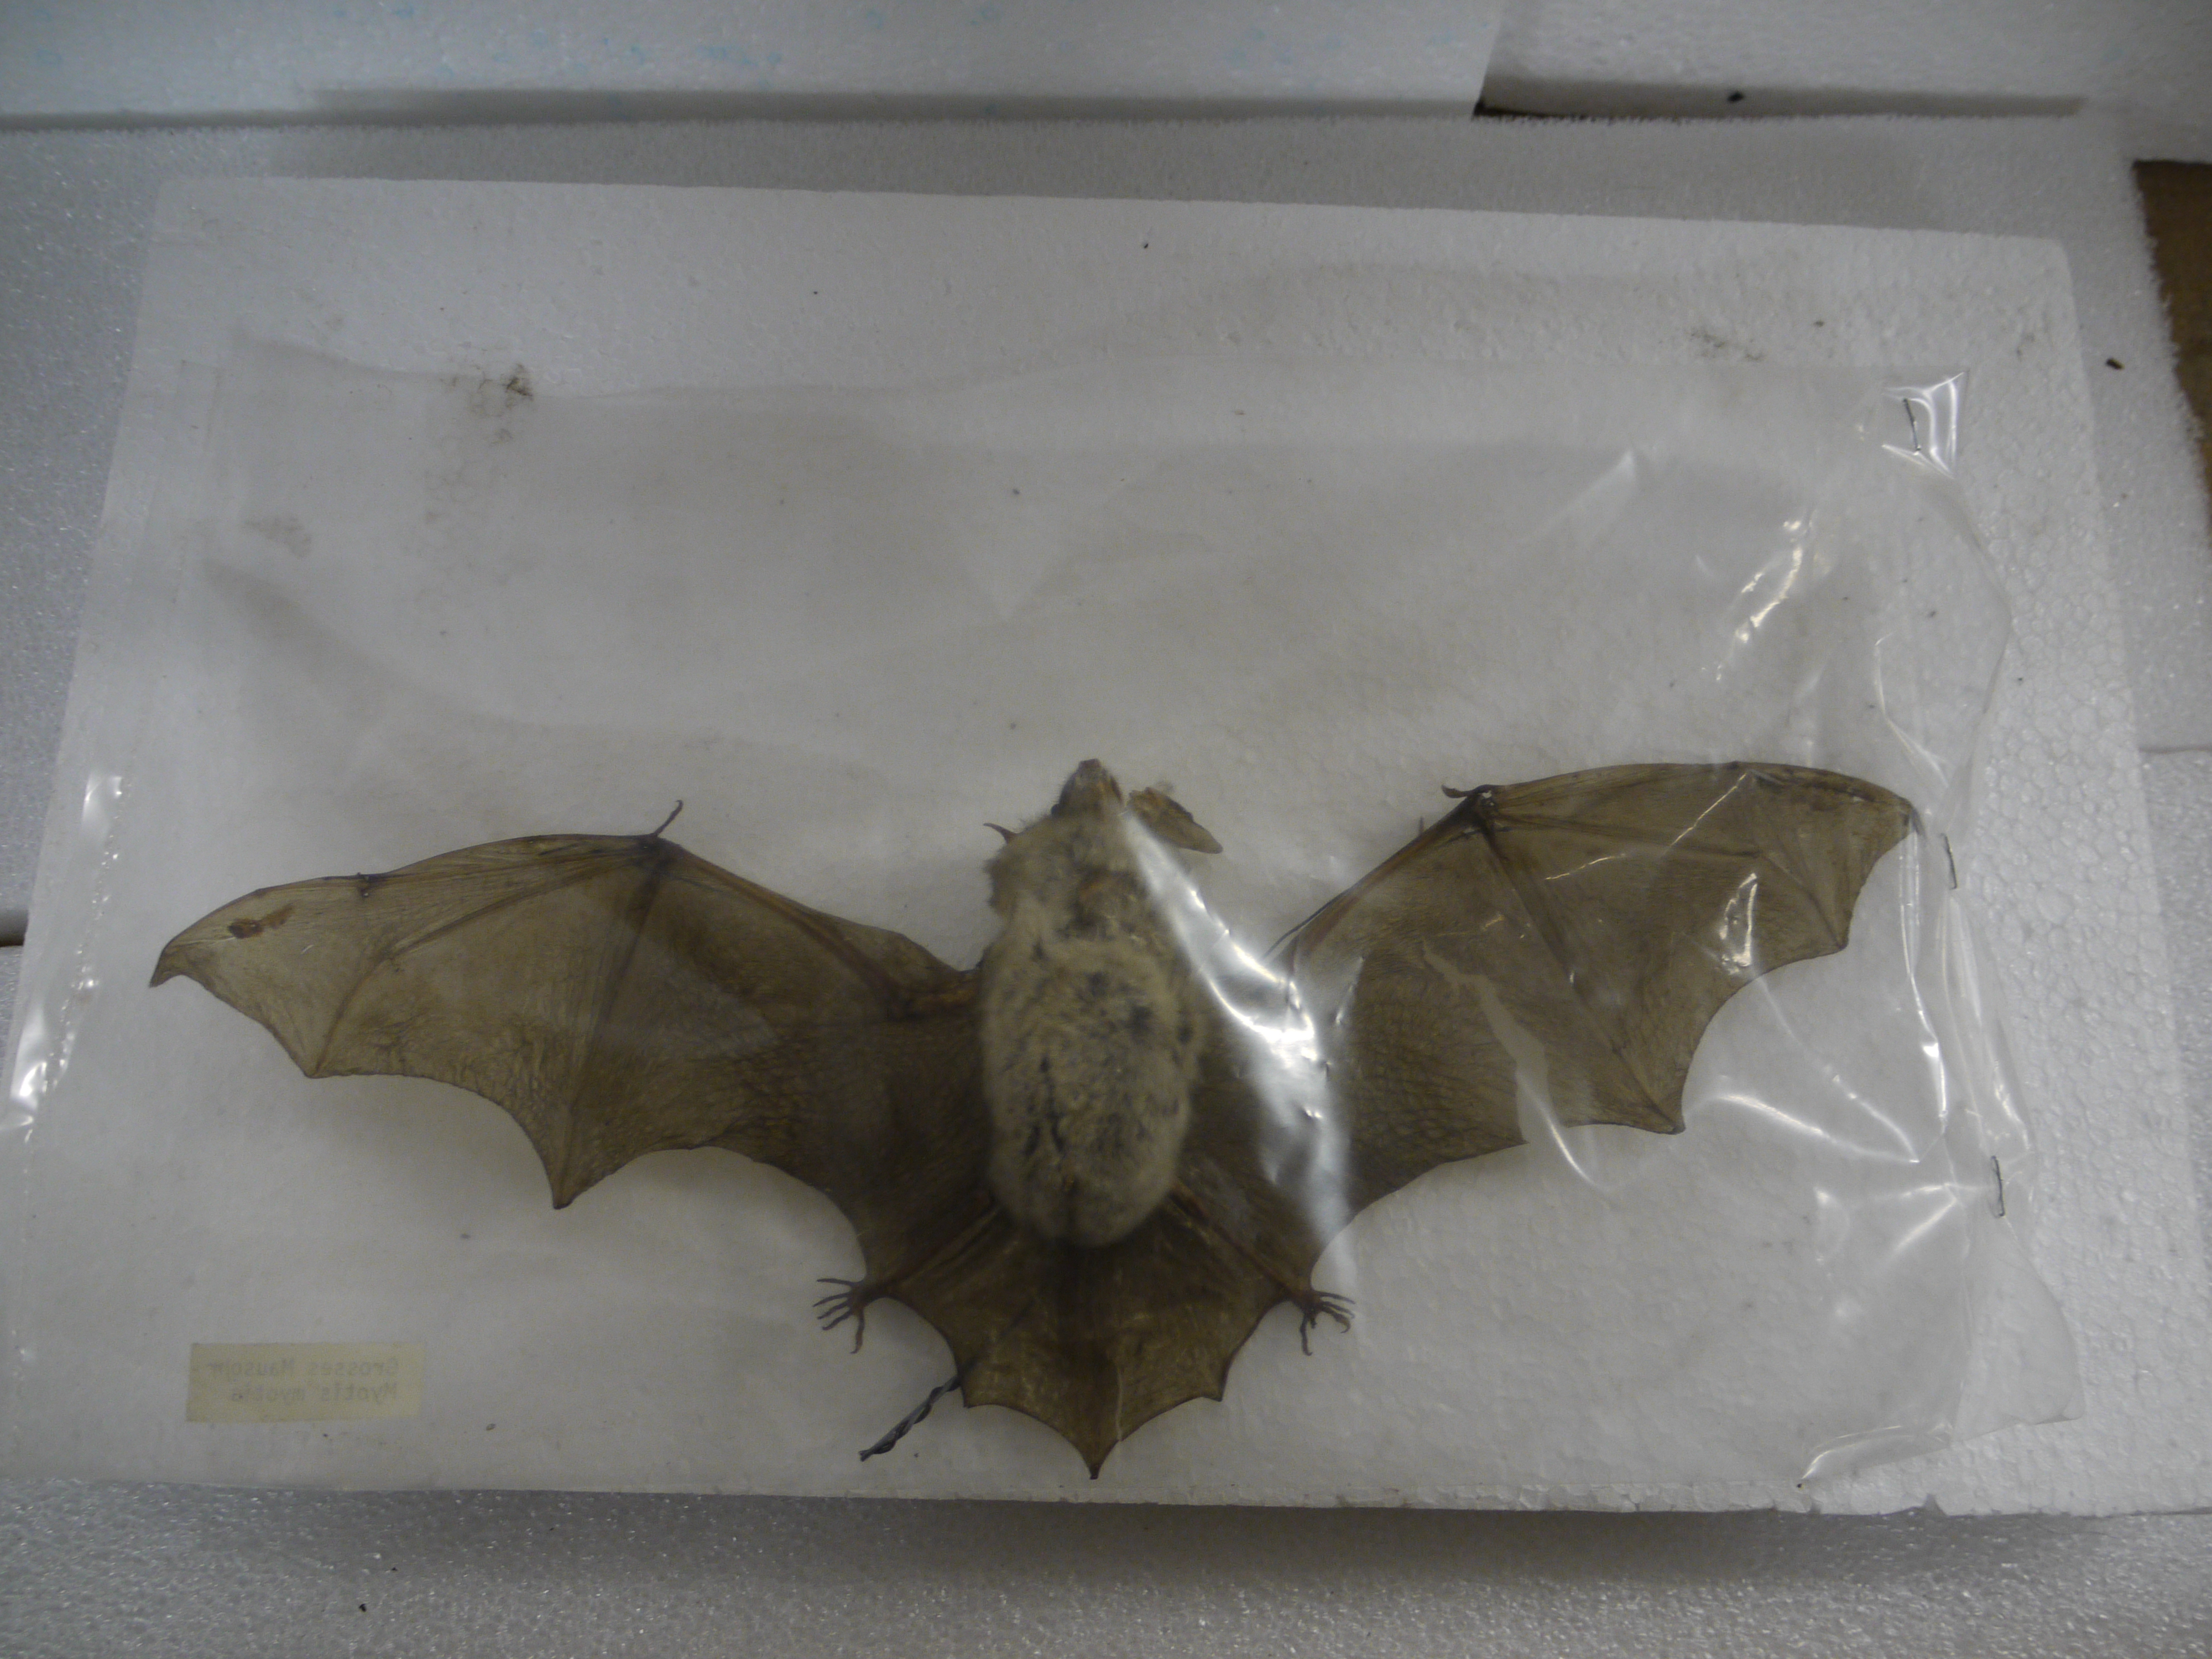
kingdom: Animalia
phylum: Chordata
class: Mammalia
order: Chiroptera
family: Vespertilionidae
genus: Myotis
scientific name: Myotis myotis
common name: Greater mouse-eared bat
